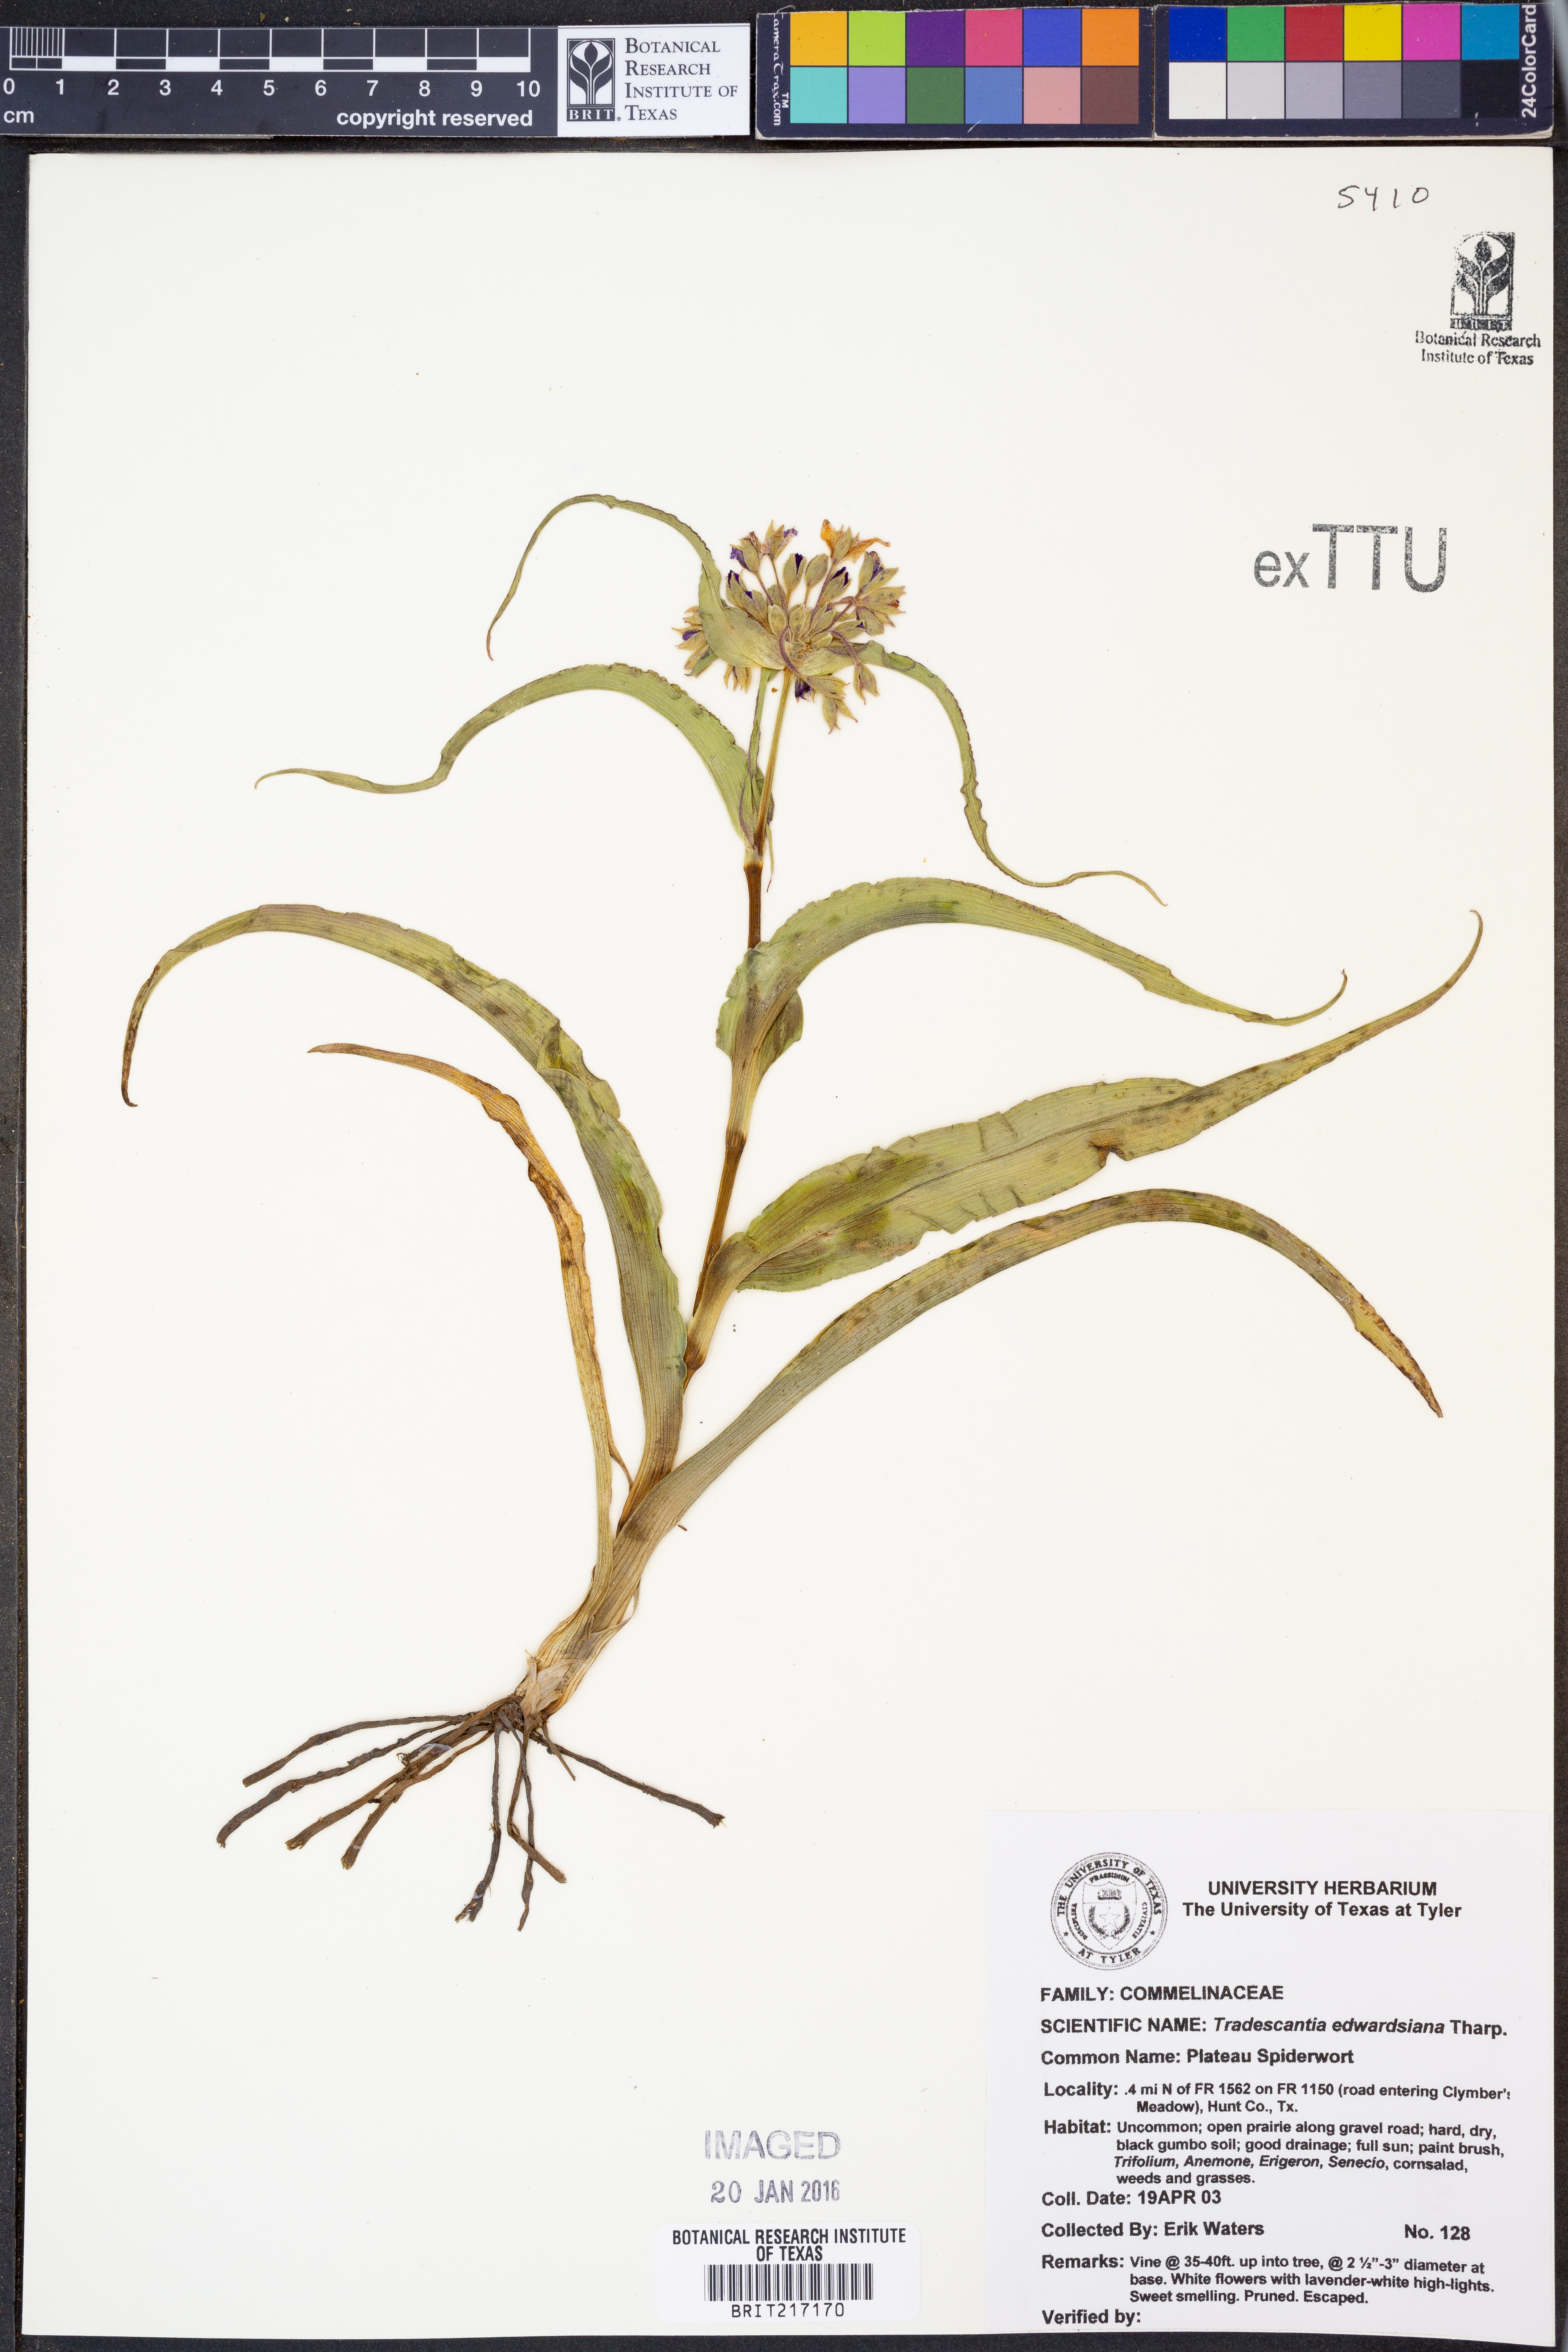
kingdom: Plantae
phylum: Tracheophyta
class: Liliopsida
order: Commelinales
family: Commelinaceae
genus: Tradescantia
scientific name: Tradescantia edwardsiana
